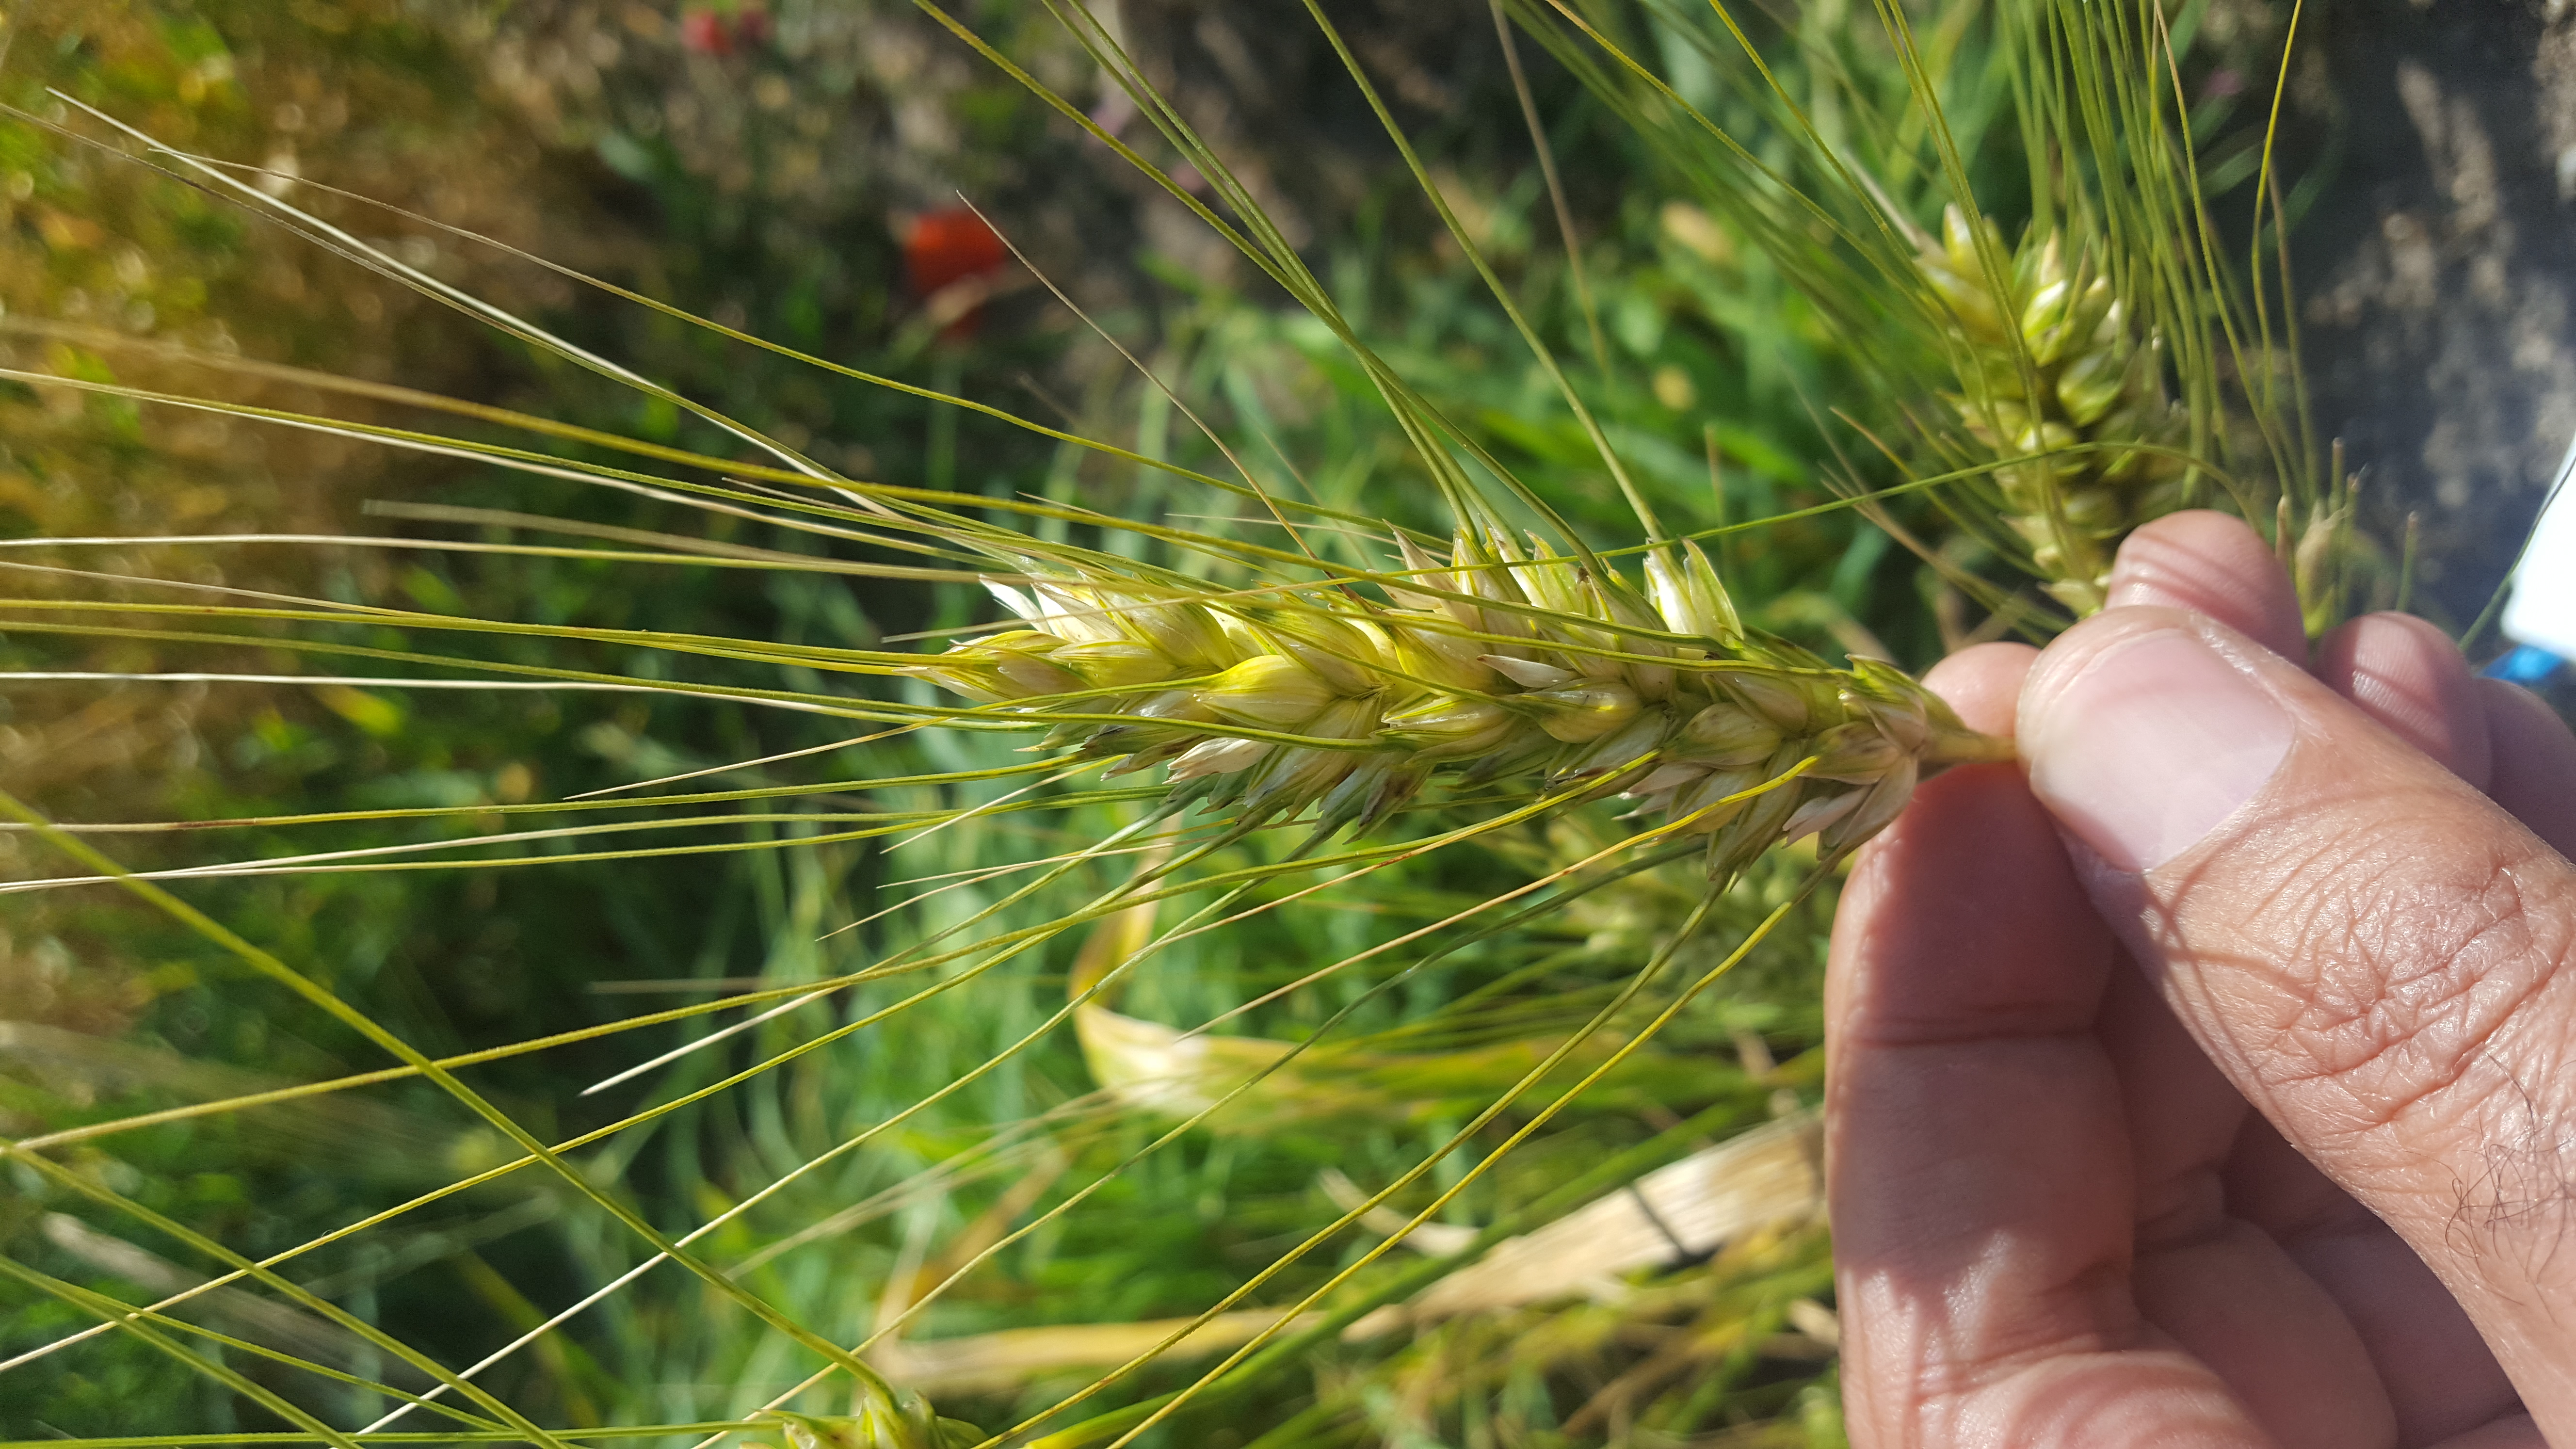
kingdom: Plantae
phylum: Tracheophyta
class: Liliopsida
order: Poales
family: Poaceae
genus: Triticum
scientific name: Triticum turgidum
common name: Rivet wheat
